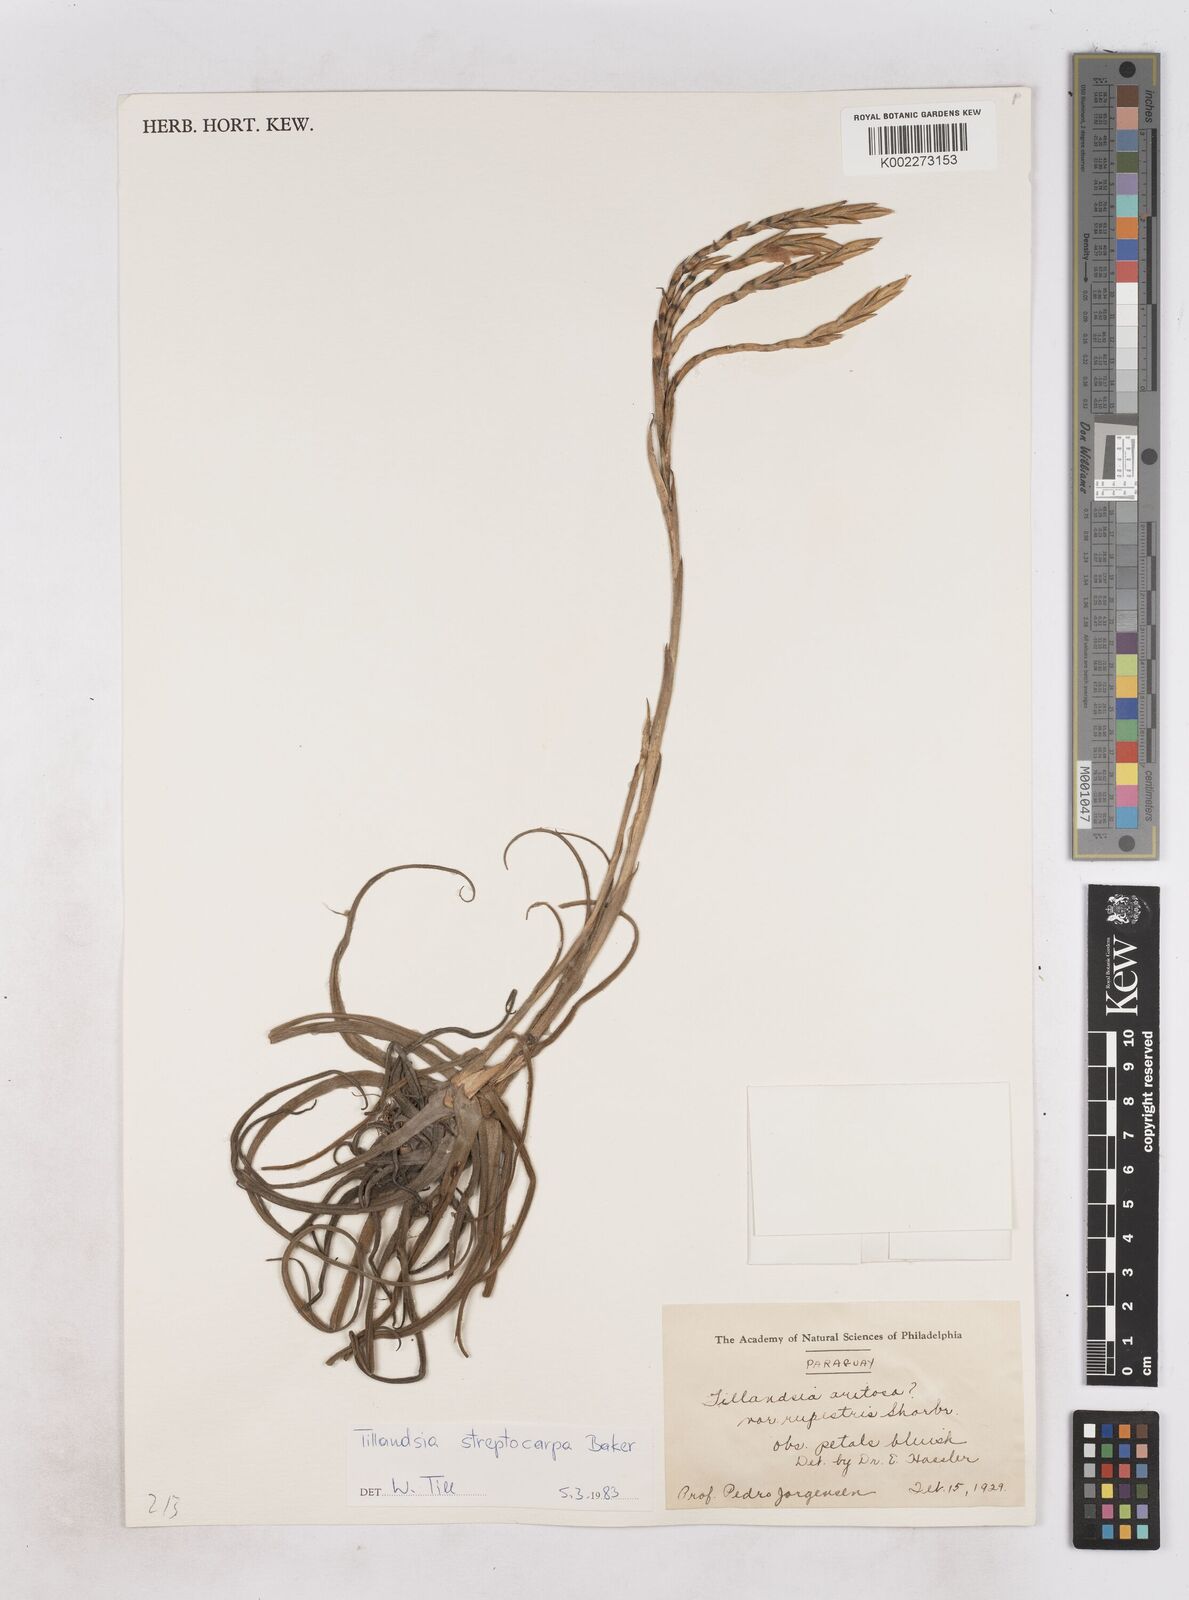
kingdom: Plantae
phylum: Tracheophyta
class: Liliopsida
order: Poales
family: Bromeliaceae
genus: Tillandsia
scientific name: Tillandsia restrepoana
